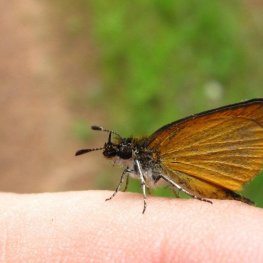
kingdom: Animalia
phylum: Arthropoda
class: Insecta
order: Lepidoptera
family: Hesperiidae
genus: Ancyloxypha
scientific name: Ancyloxypha numitor
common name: Least Skipper
